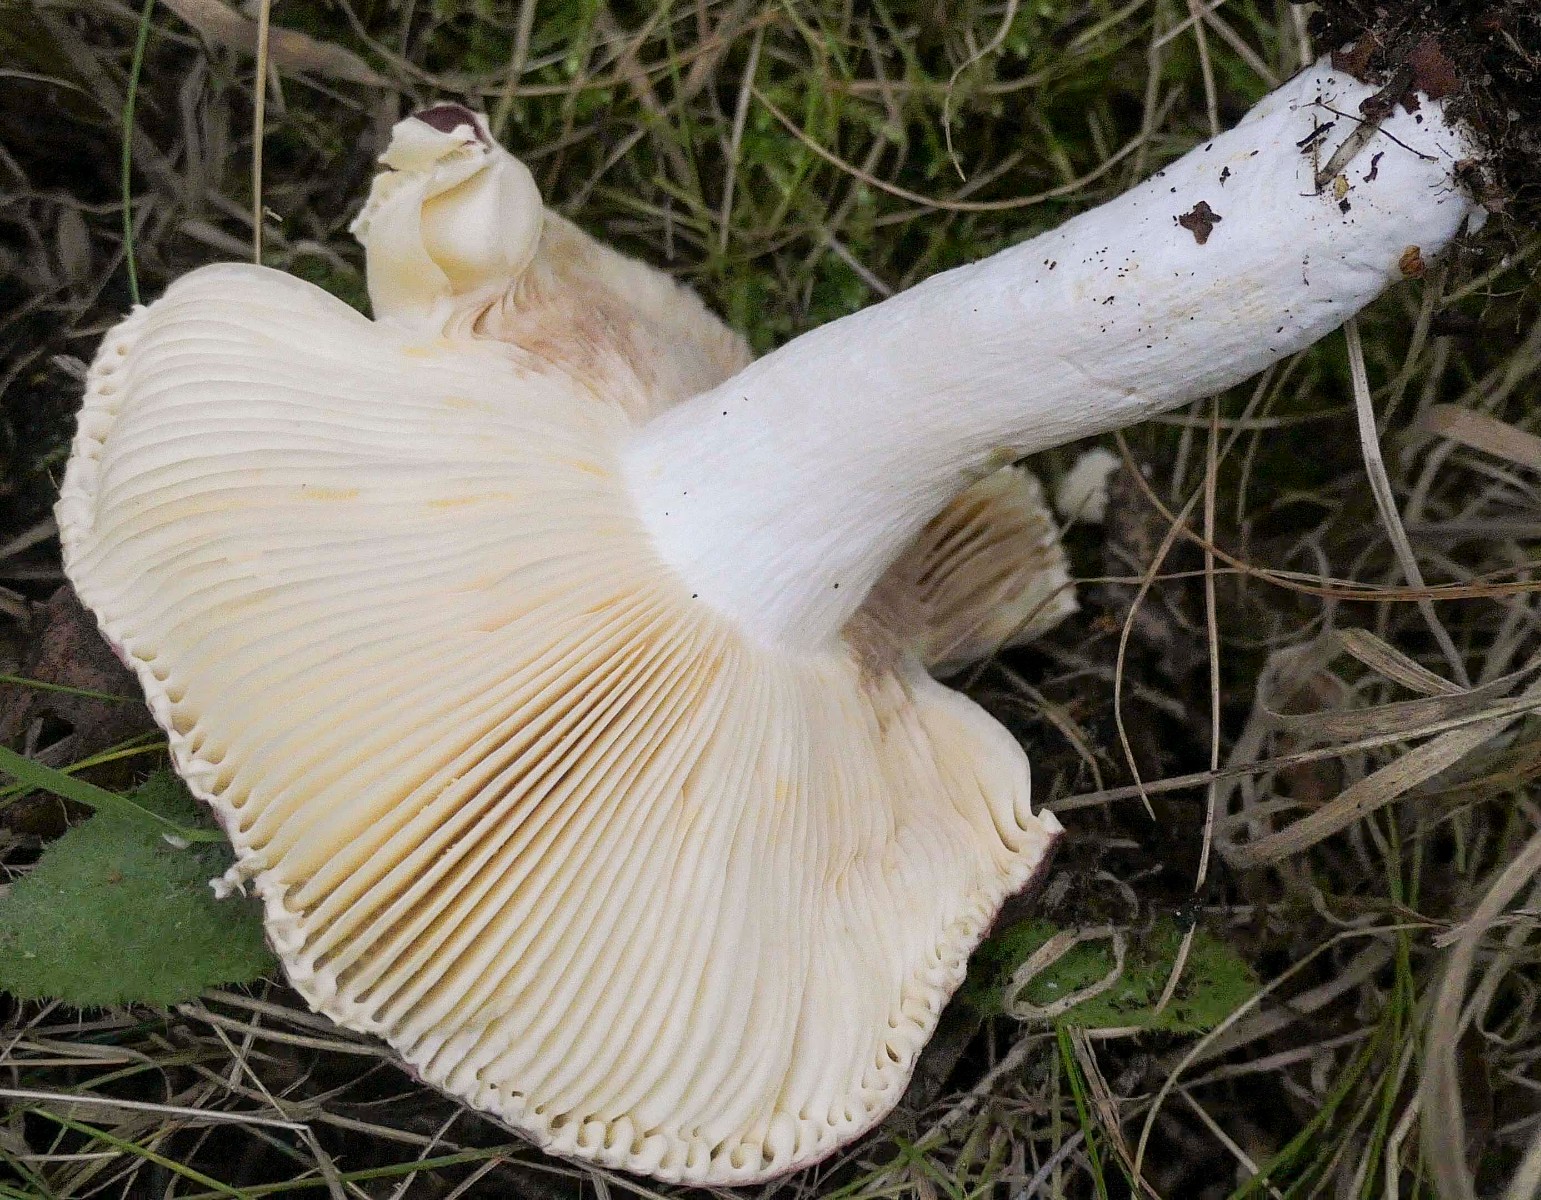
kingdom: Fungi
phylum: Basidiomycota
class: Agaricomycetes
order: Russulales
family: Russulaceae
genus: Russula
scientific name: Russula
